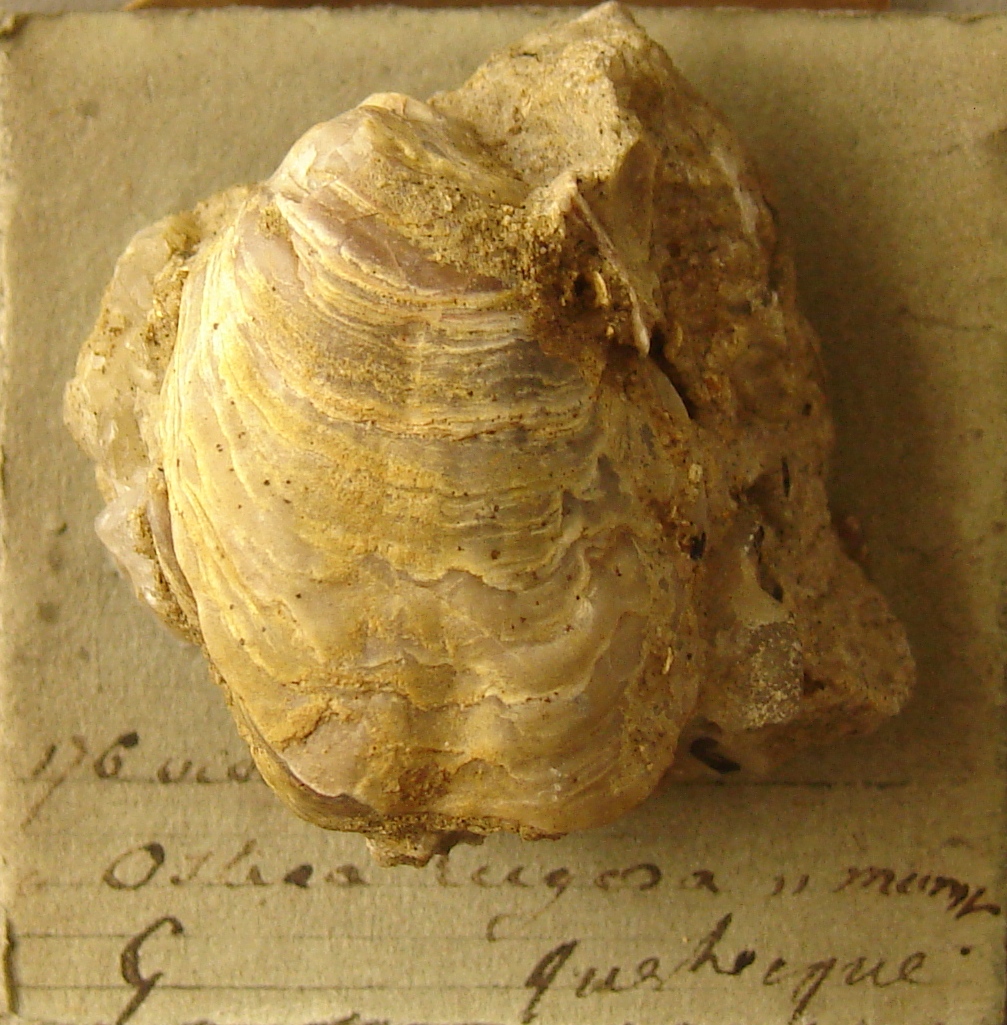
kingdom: Animalia
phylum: Mollusca
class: Bivalvia
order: Ostreida
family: Ostreidae
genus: Ostrea
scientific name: Ostrea rugosa
